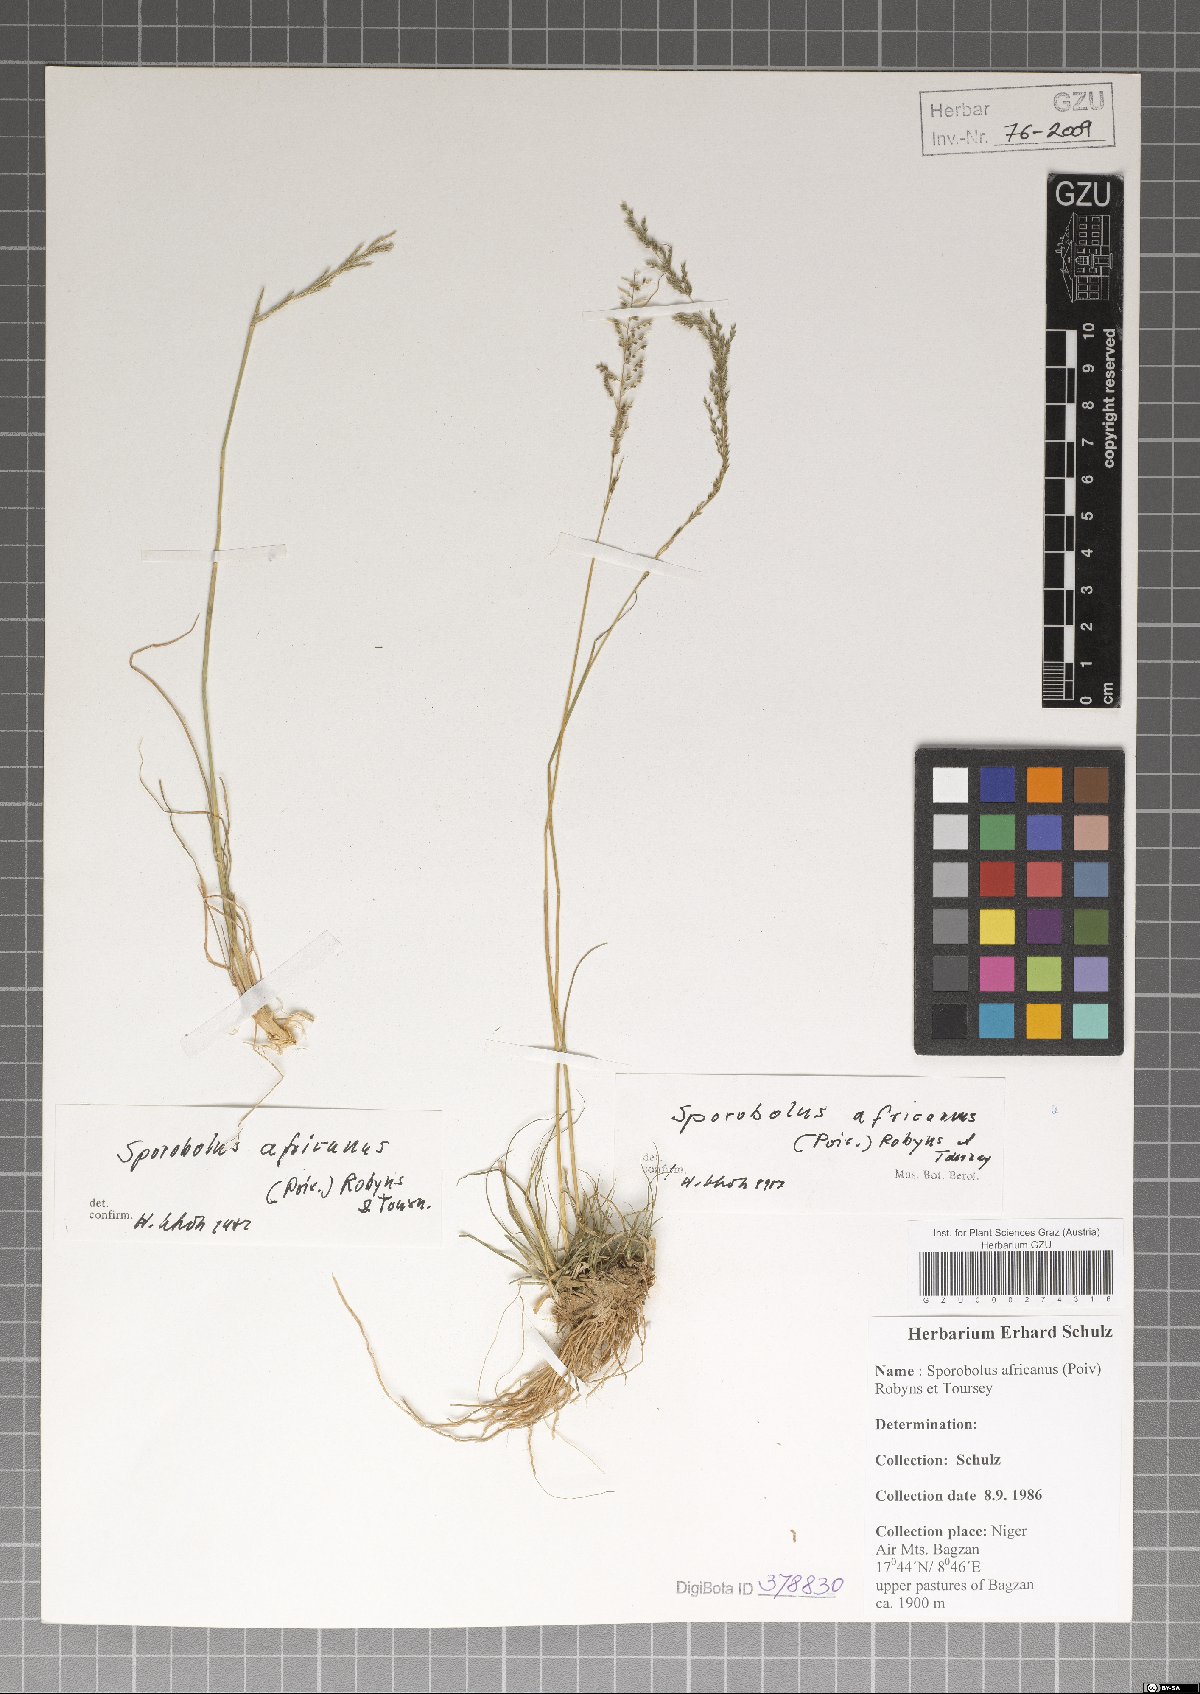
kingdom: Plantae
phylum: Tracheophyta
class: Liliopsida
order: Poales
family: Poaceae
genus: Sporobolus
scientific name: Sporobolus africanus
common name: African dropseed
